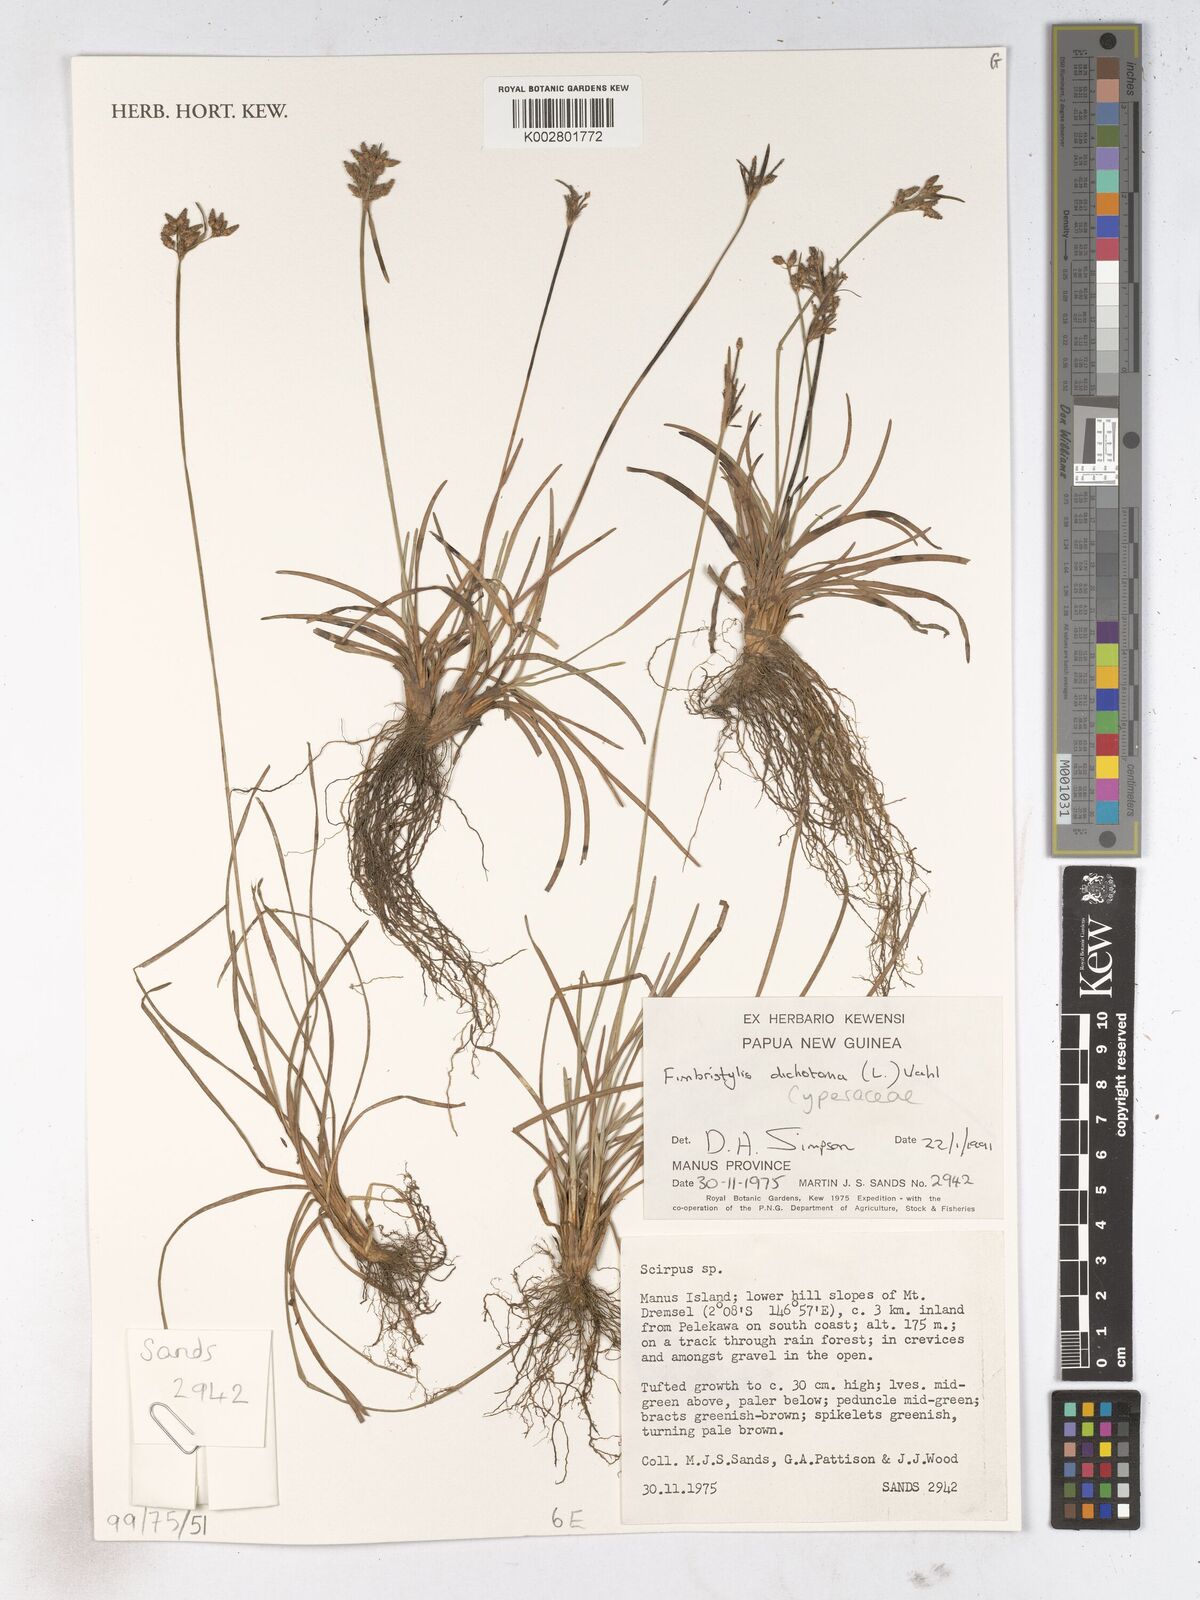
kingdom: Plantae
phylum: Tracheophyta
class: Liliopsida
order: Poales
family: Cyperaceae
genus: Fimbristylis
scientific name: Fimbristylis dichotoma
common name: Forked fimbry
